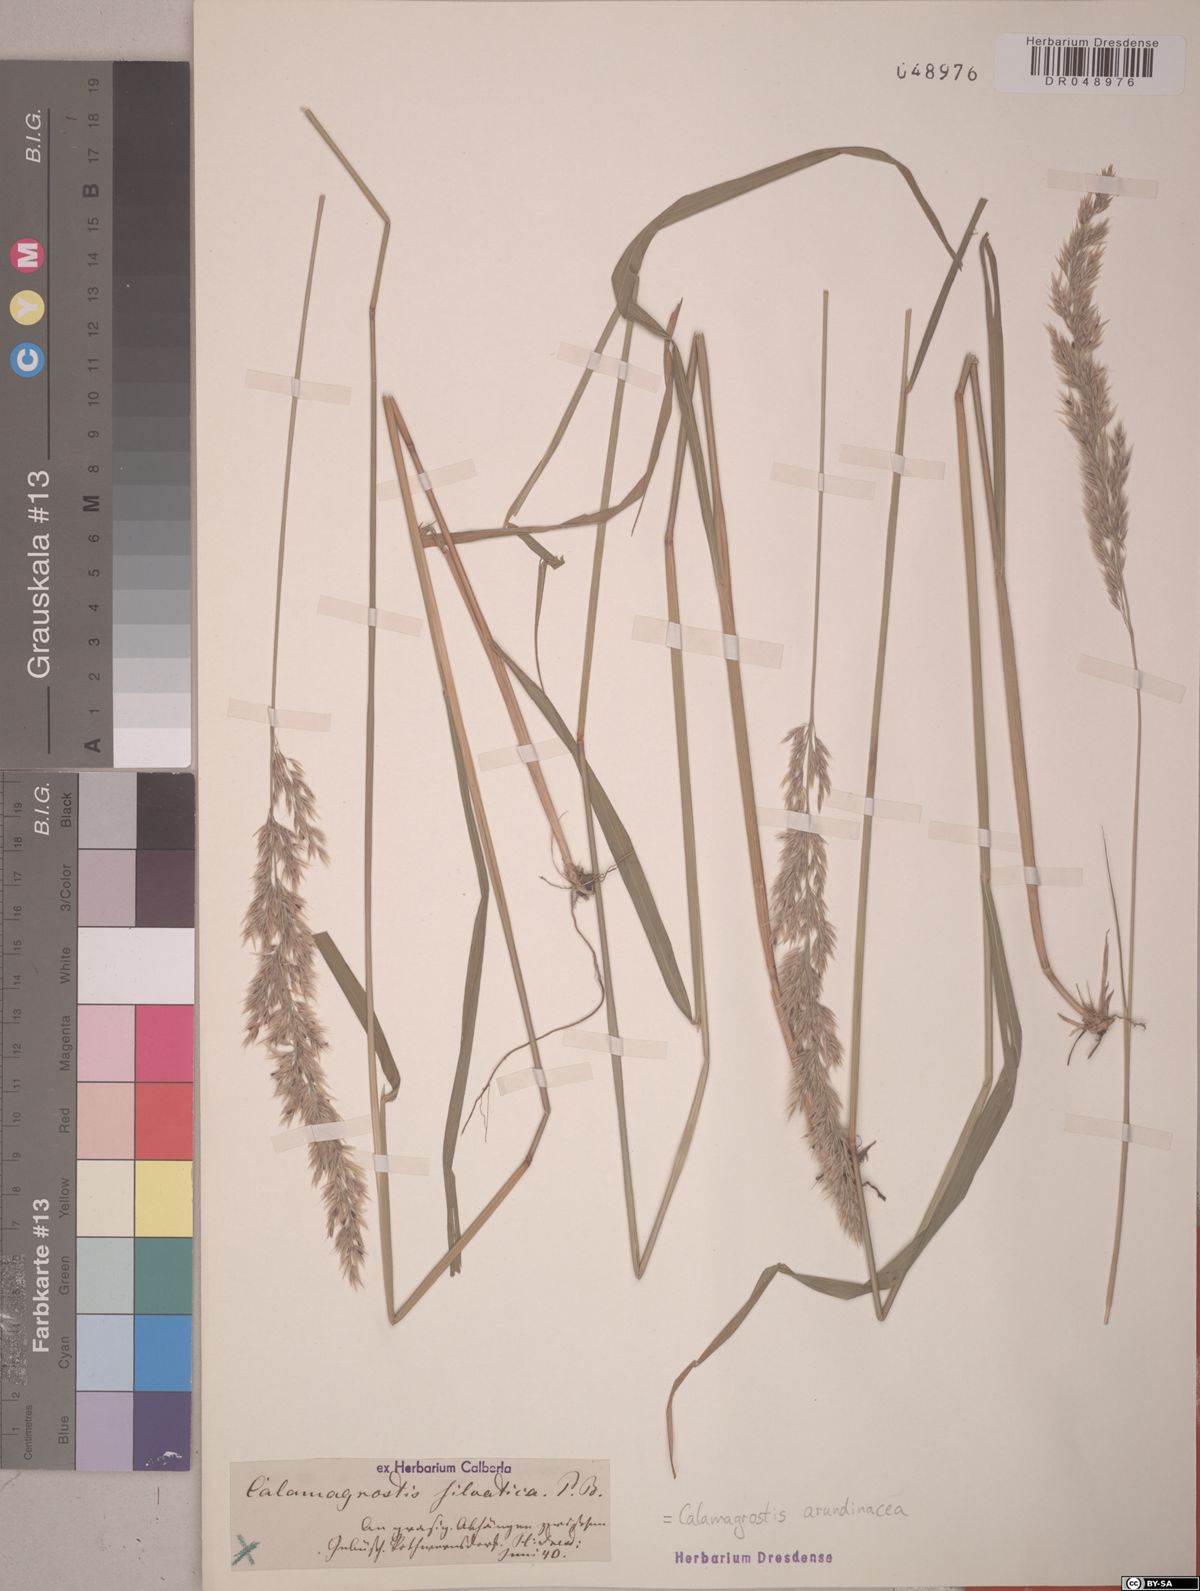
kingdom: Plantae
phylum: Tracheophyta
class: Liliopsida
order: Poales
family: Poaceae
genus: Calamagrostis
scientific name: Calamagrostis arundinacea
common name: Metskastik
